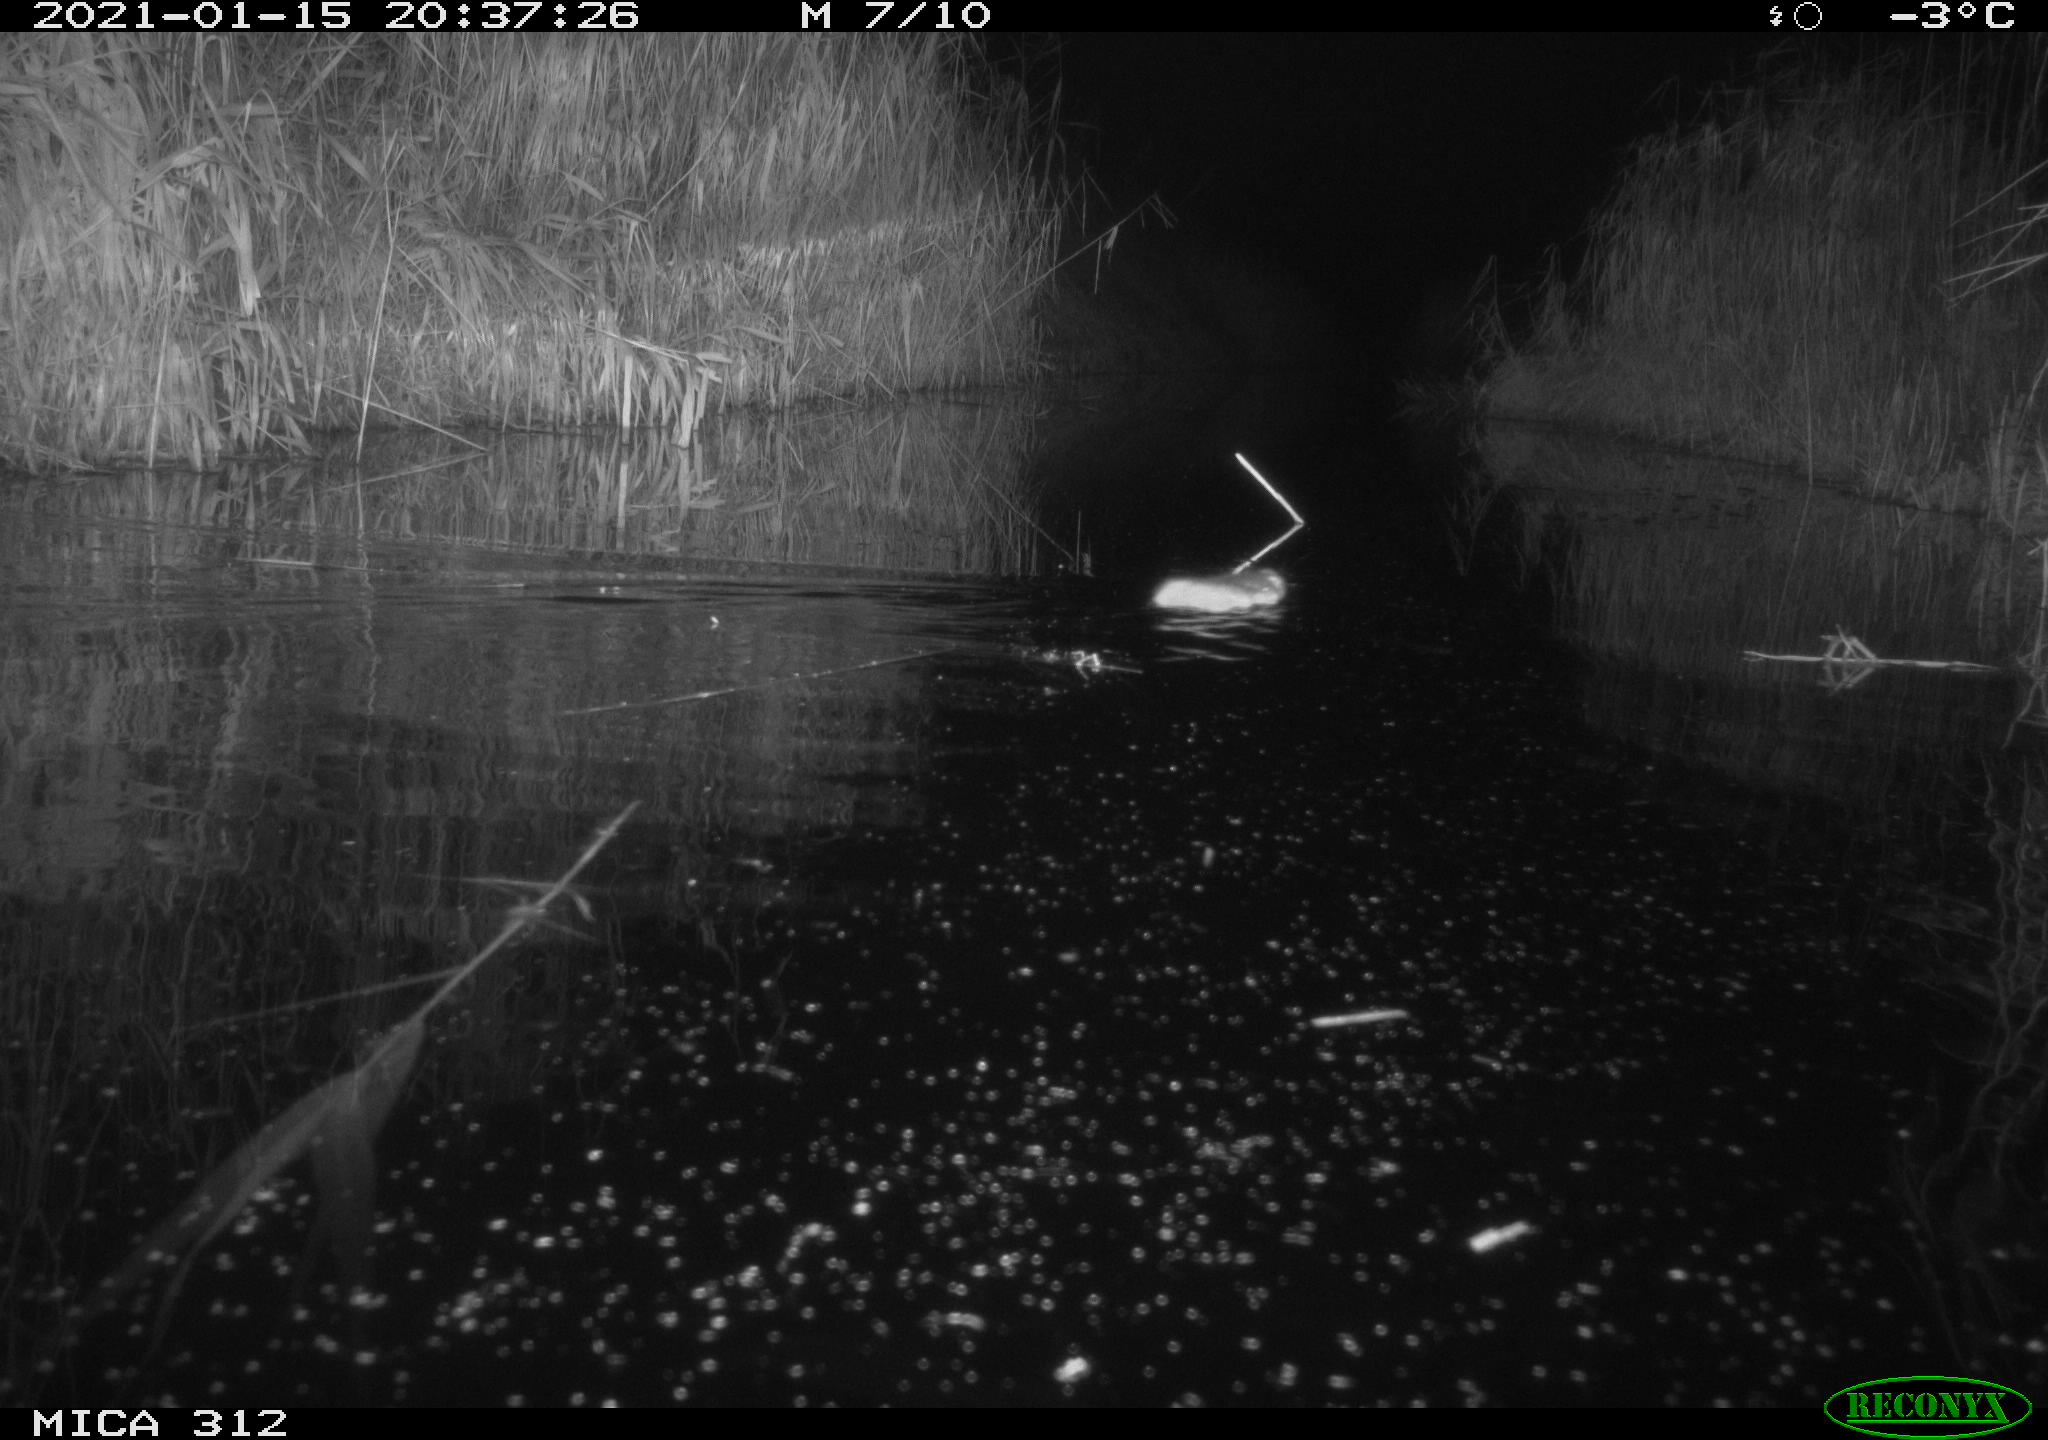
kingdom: Animalia
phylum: Chordata
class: Mammalia
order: Rodentia
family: Muridae
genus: Rattus
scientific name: Rattus norvegicus
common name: Brown rat
